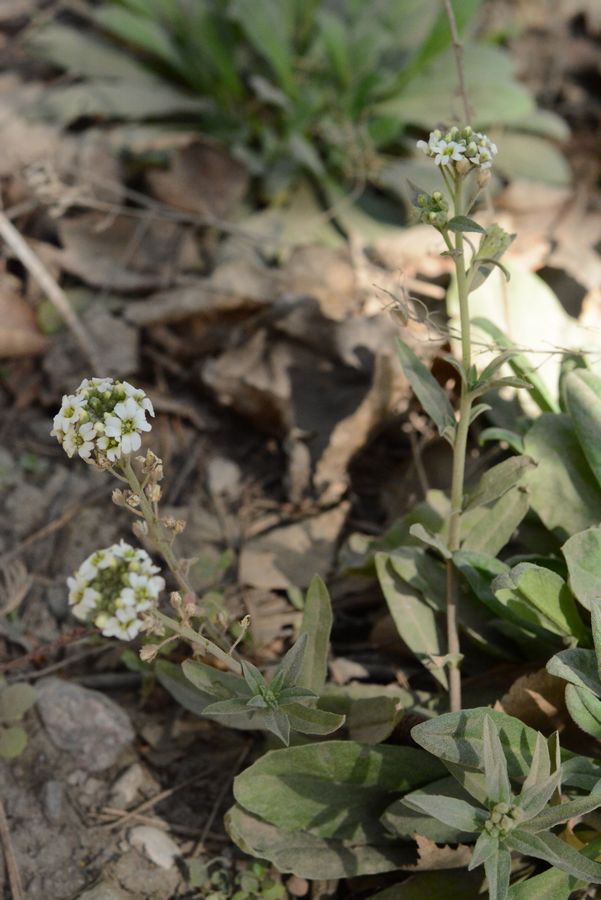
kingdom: Plantae
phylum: Tracheophyta
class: Magnoliopsida
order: Brassicales
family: Brassicaceae
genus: Berteroa
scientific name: Berteroa incana
